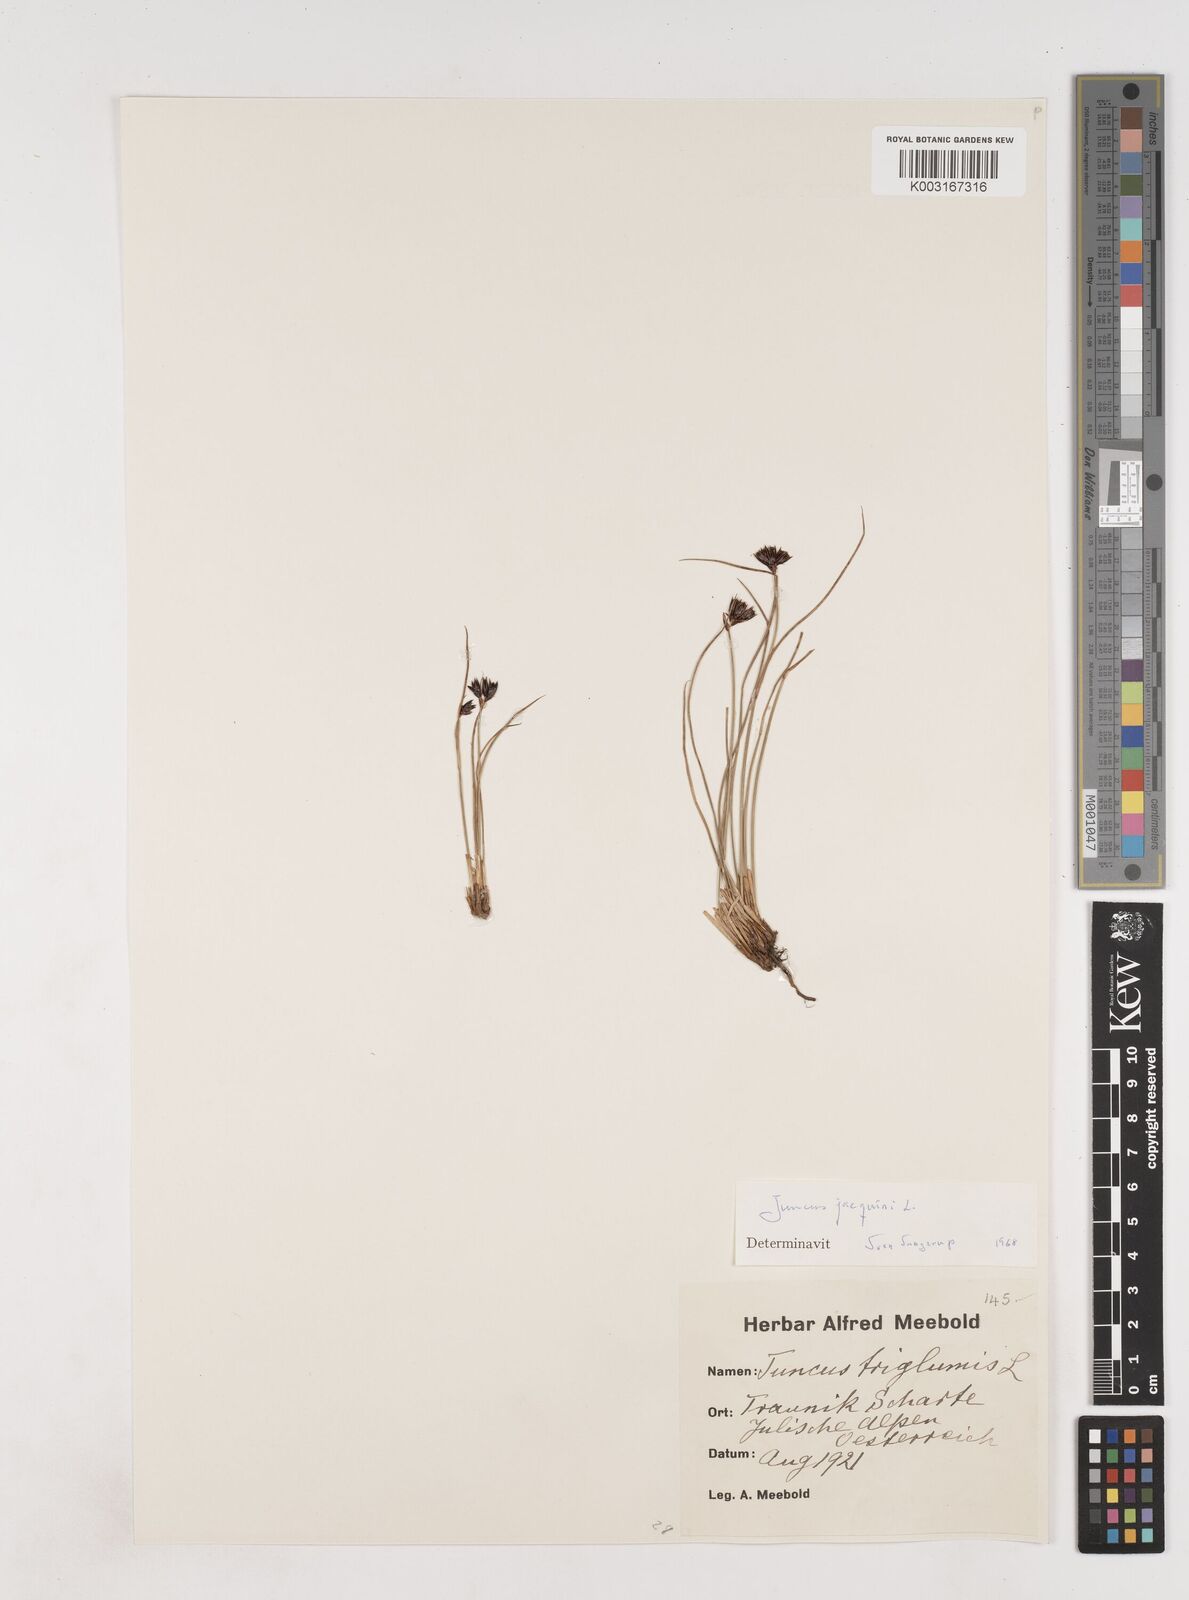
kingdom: Plantae
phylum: Tracheophyta
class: Liliopsida
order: Poales
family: Juncaceae
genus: Juncus
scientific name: Juncus jacquinii
